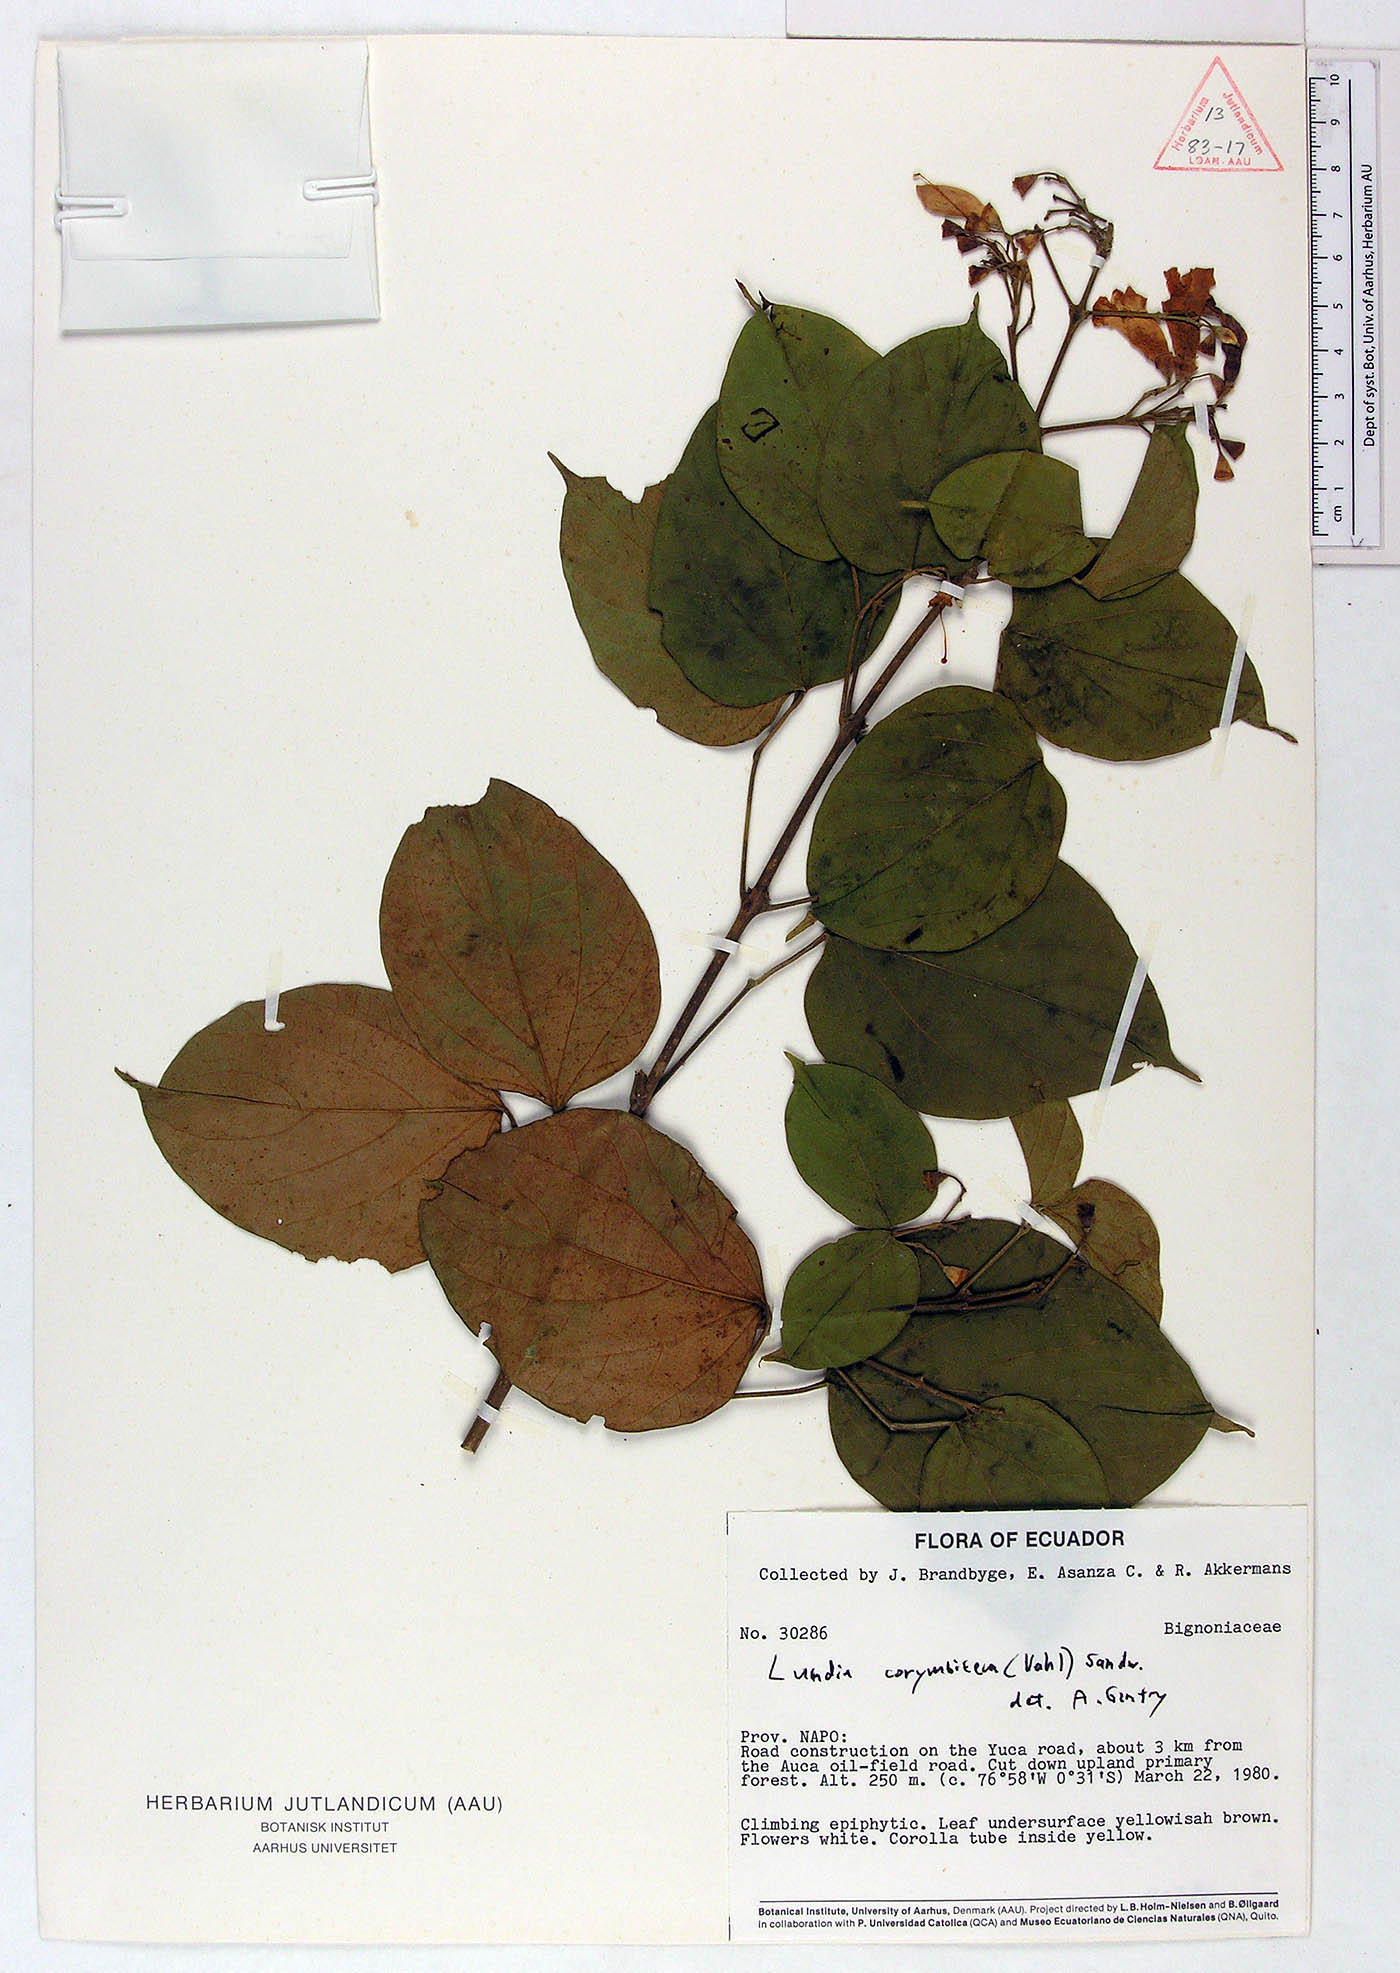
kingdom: Plantae
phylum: Tracheophyta
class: Magnoliopsida
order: Lamiales
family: Bignoniaceae
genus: Lundia
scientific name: Lundia corymbifera
